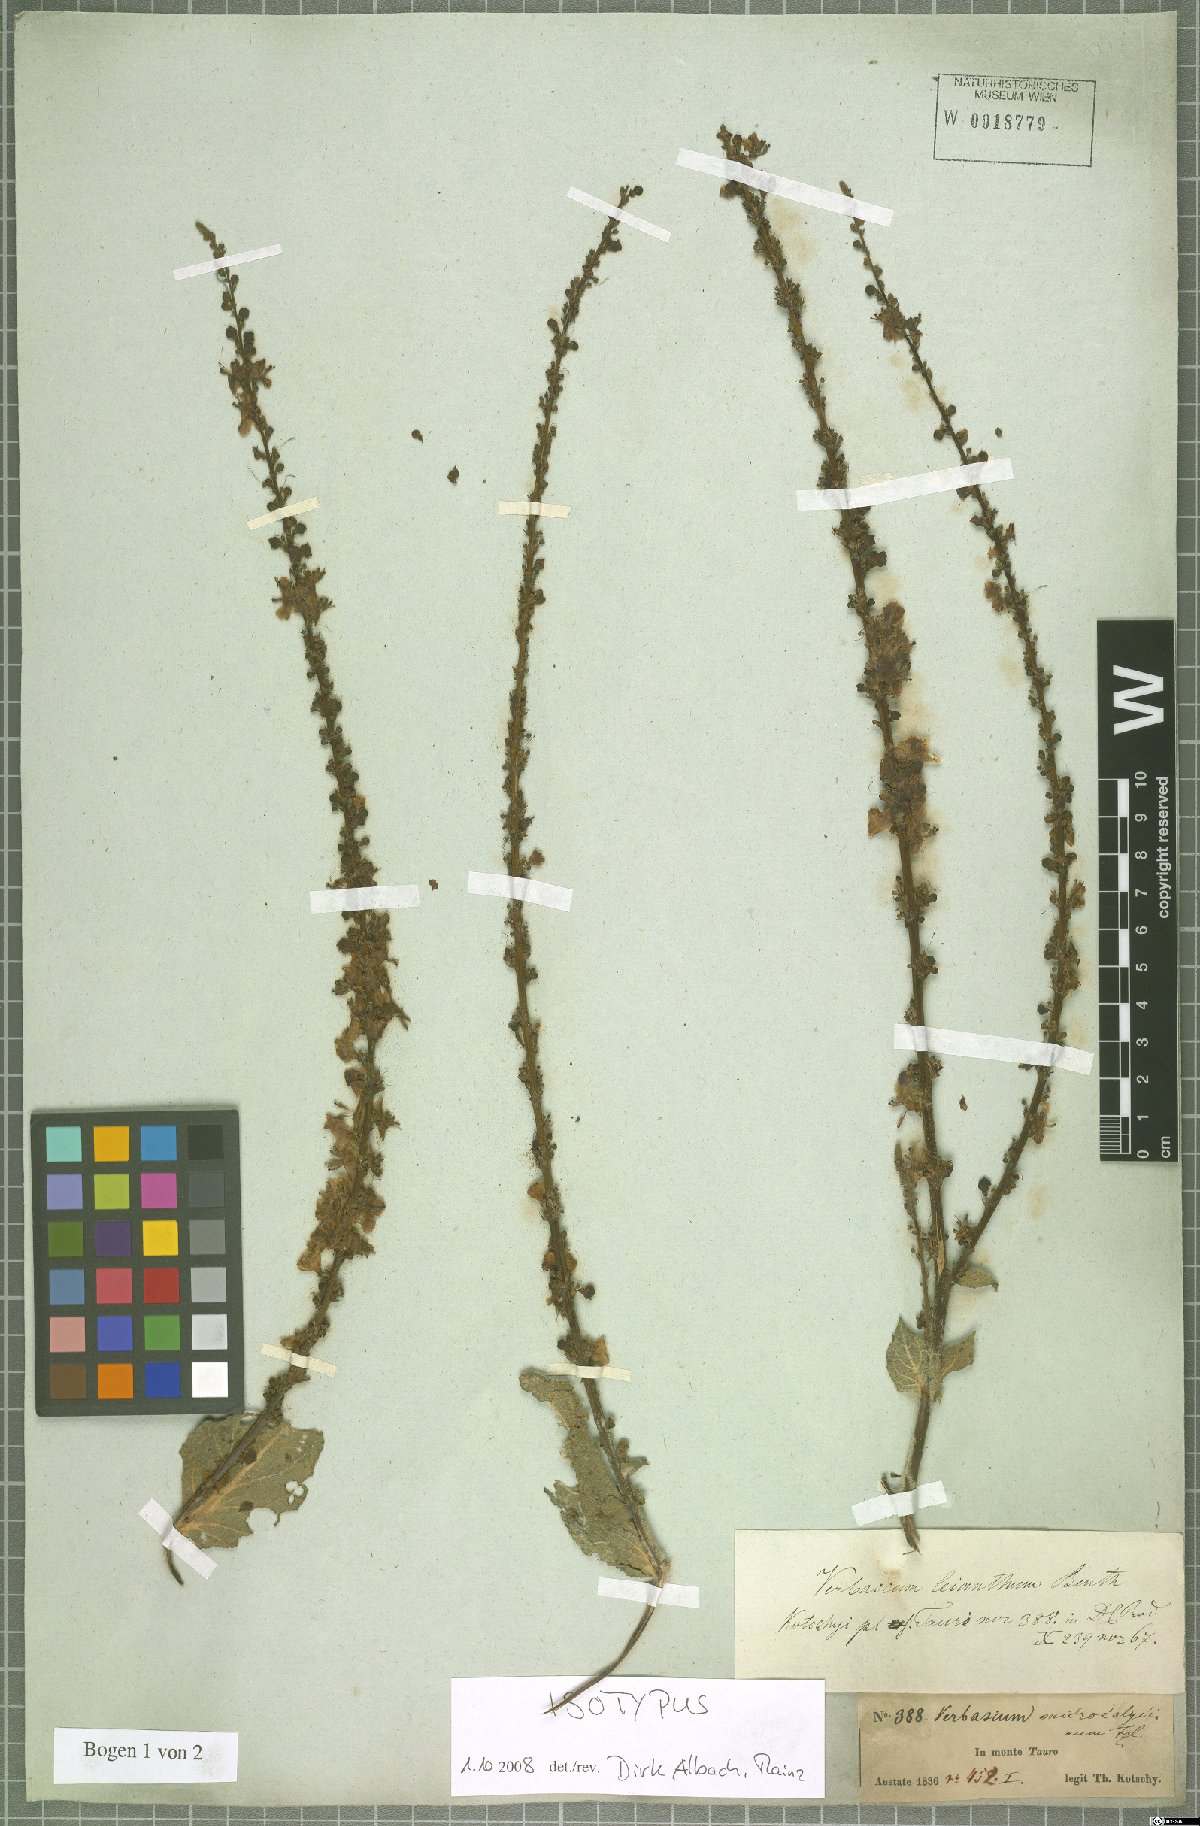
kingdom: Plantae
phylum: Tracheophyta
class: Magnoliopsida
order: Lamiales
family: Scrophulariaceae
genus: Verbascum
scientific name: Verbascum leianthum
